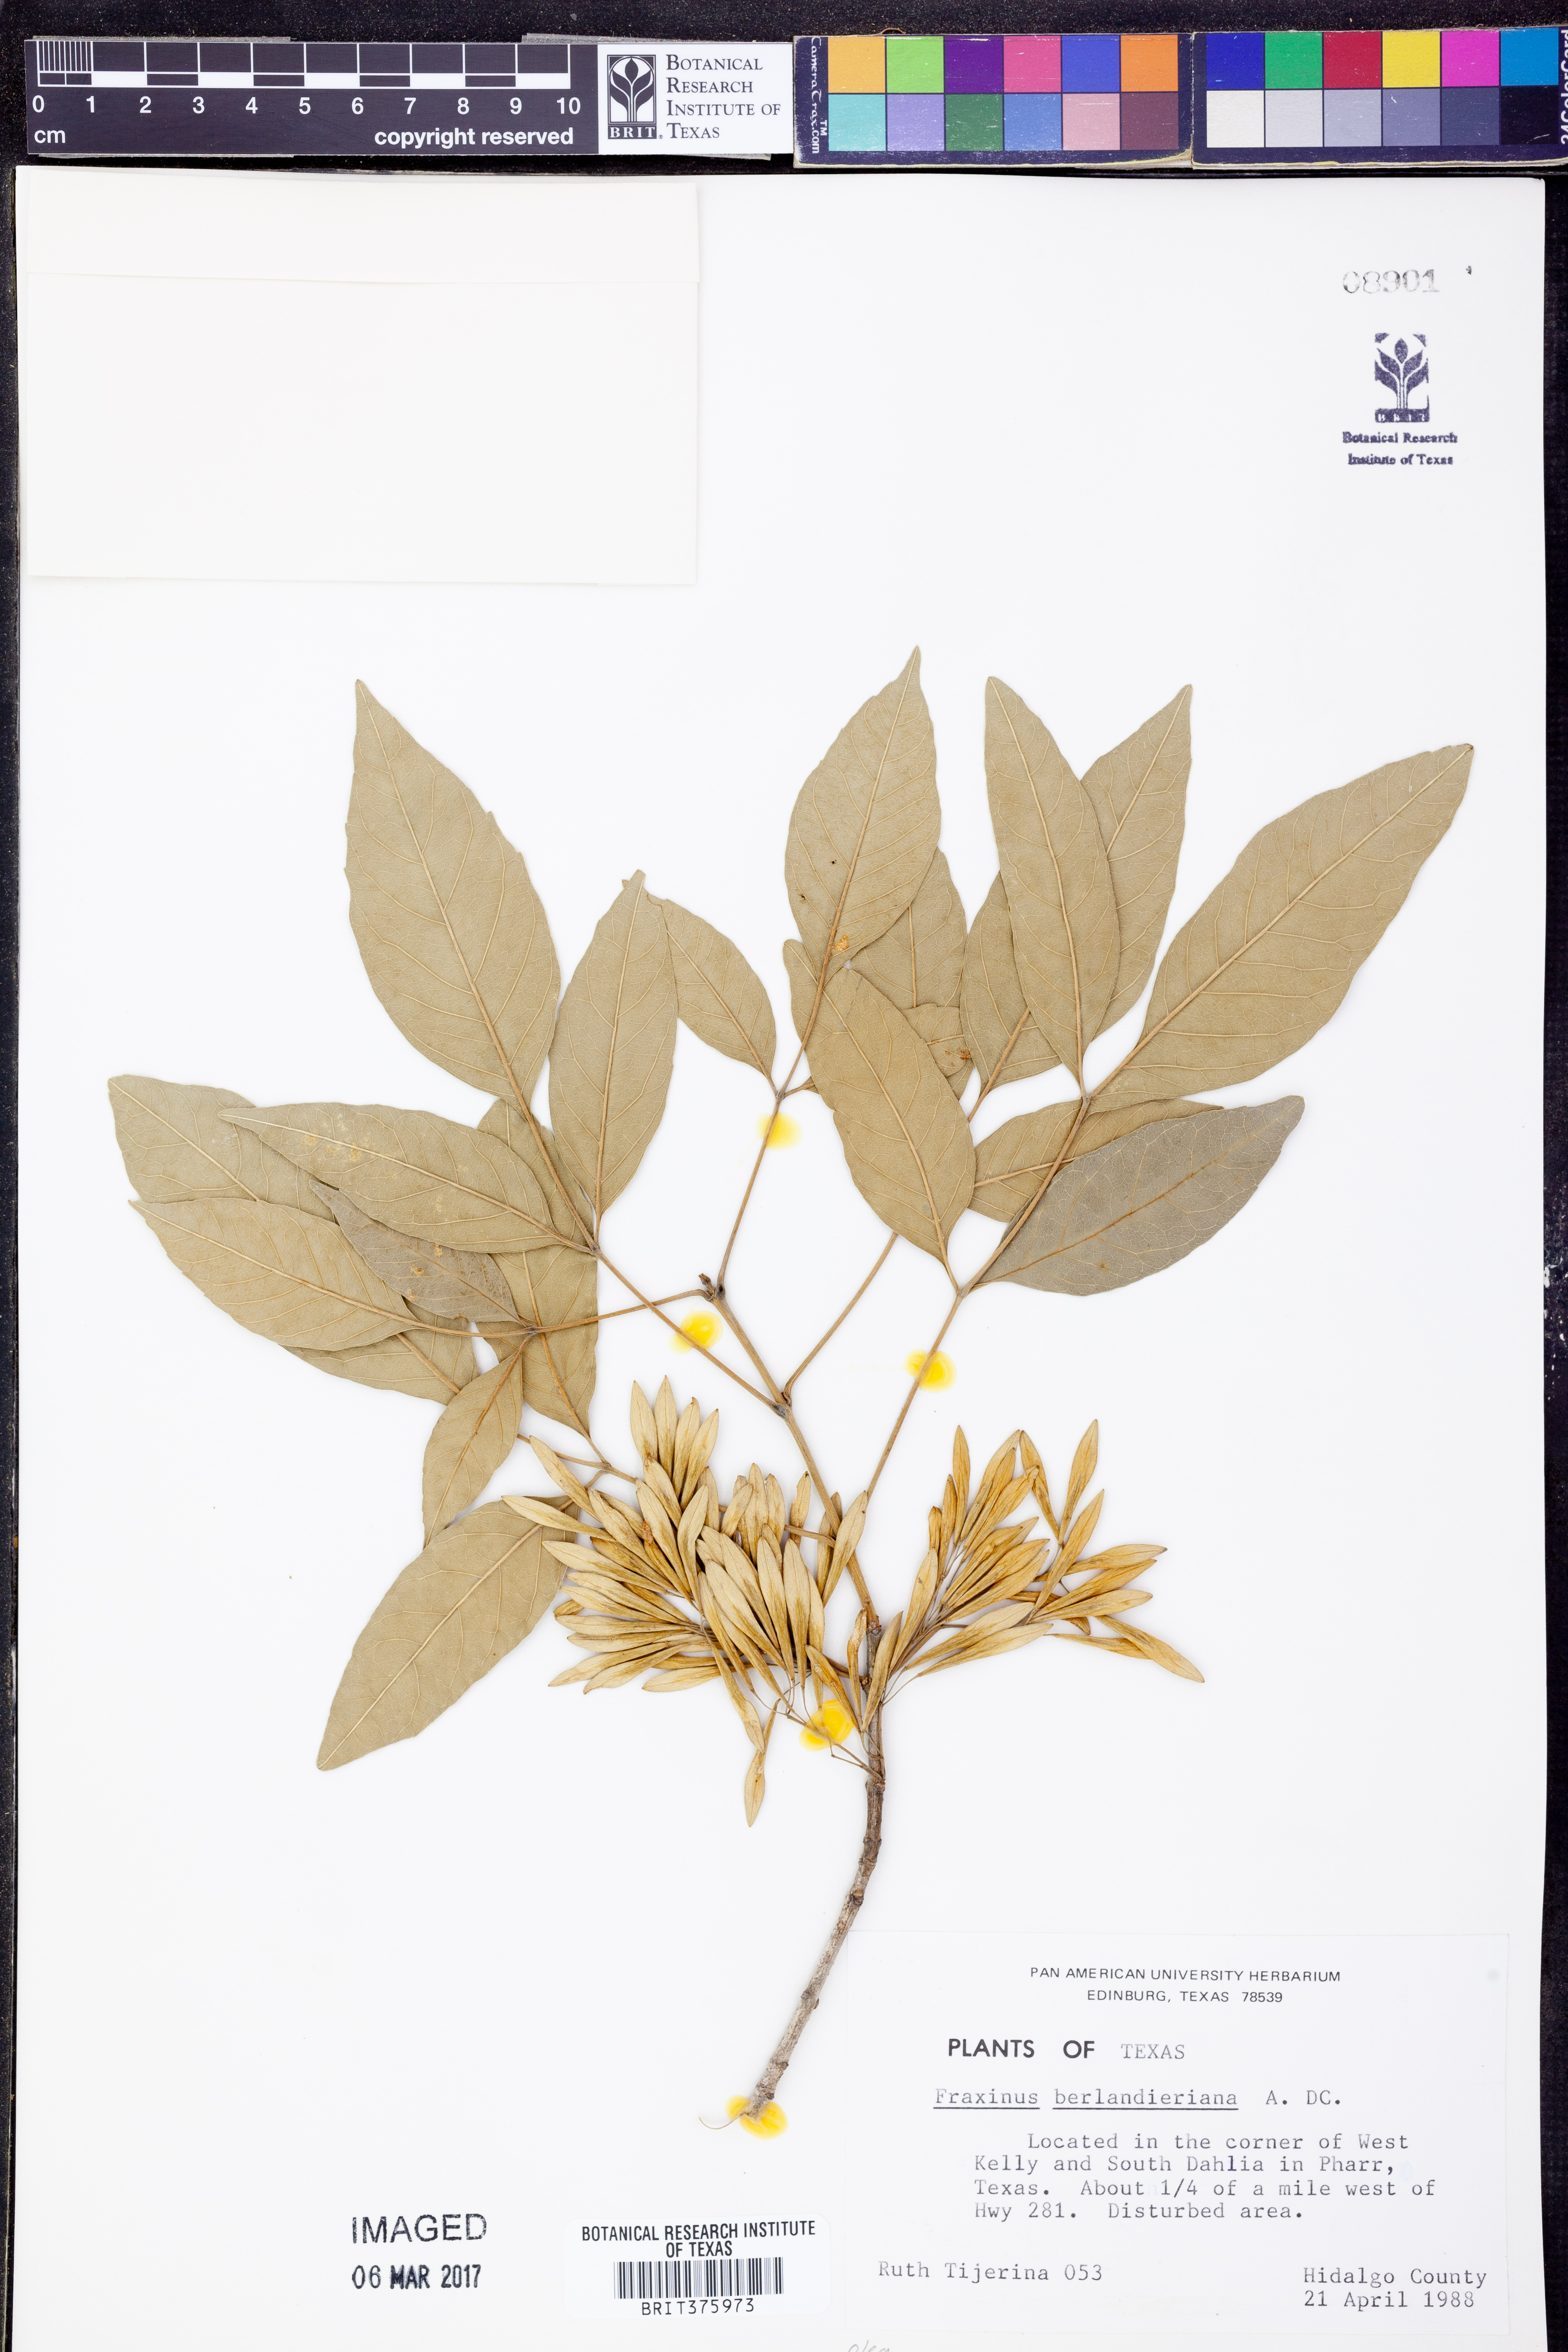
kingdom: Plantae
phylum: Tracheophyta
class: Magnoliopsida
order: Lamiales
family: Oleaceae
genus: Fraxinus
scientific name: Fraxinus berlandieriana
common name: Berlandier ash
